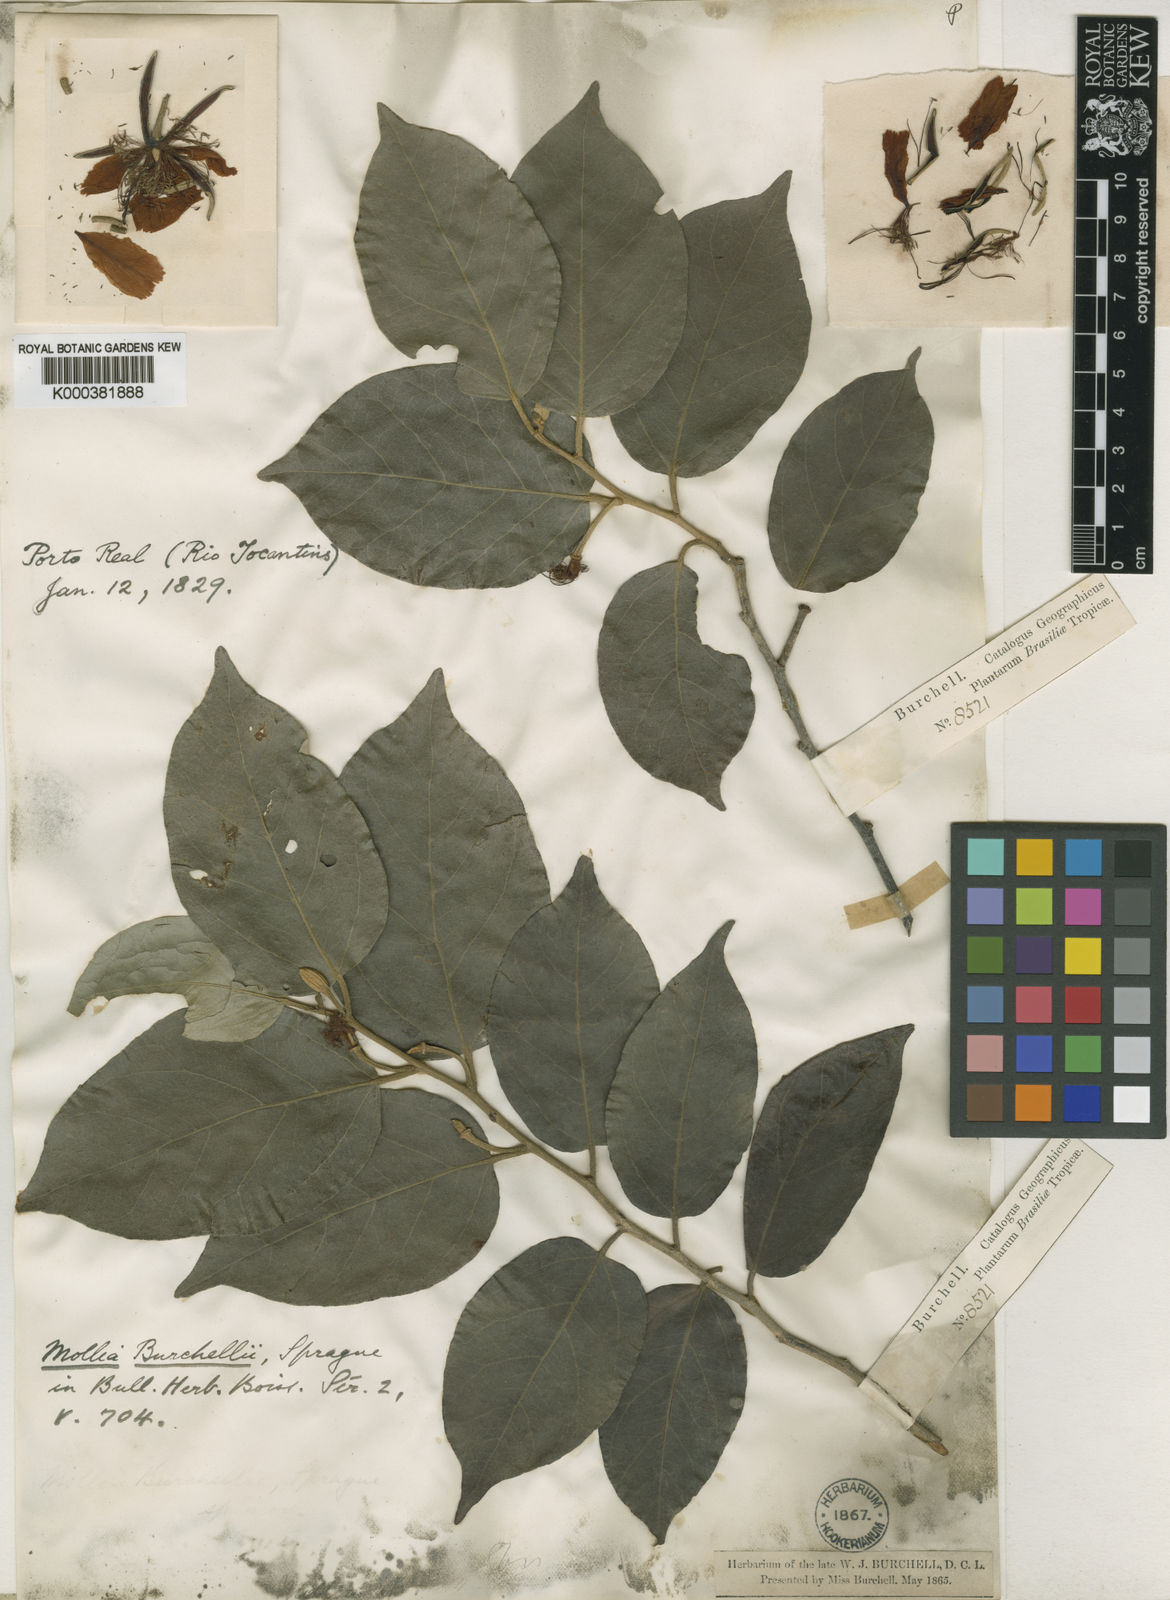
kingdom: Plantae
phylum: Tracheophyta
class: Magnoliopsida
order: Malvales
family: Malvaceae
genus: Mollia
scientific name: Mollia burchellii
